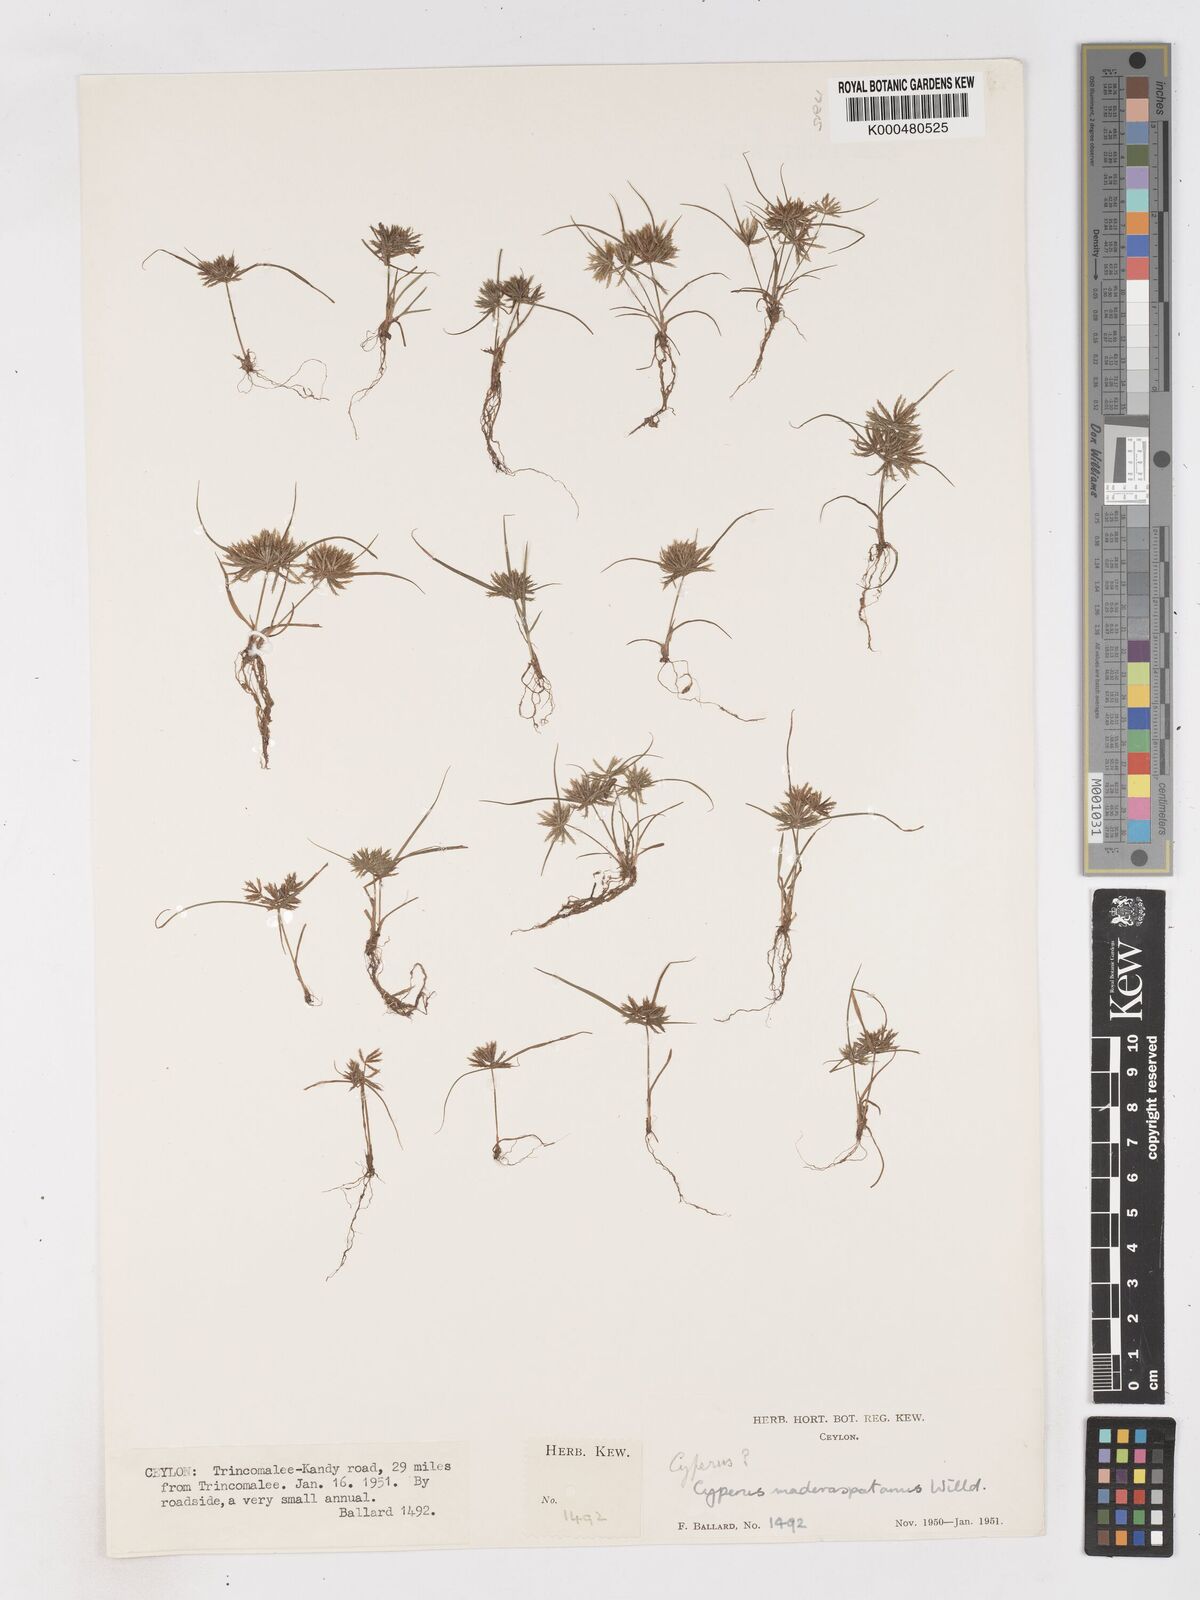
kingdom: Plantae
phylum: Tracheophyta
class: Liliopsida
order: Poales
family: Cyperaceae
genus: Cyperus
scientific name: Cyperus maderaspatanus
